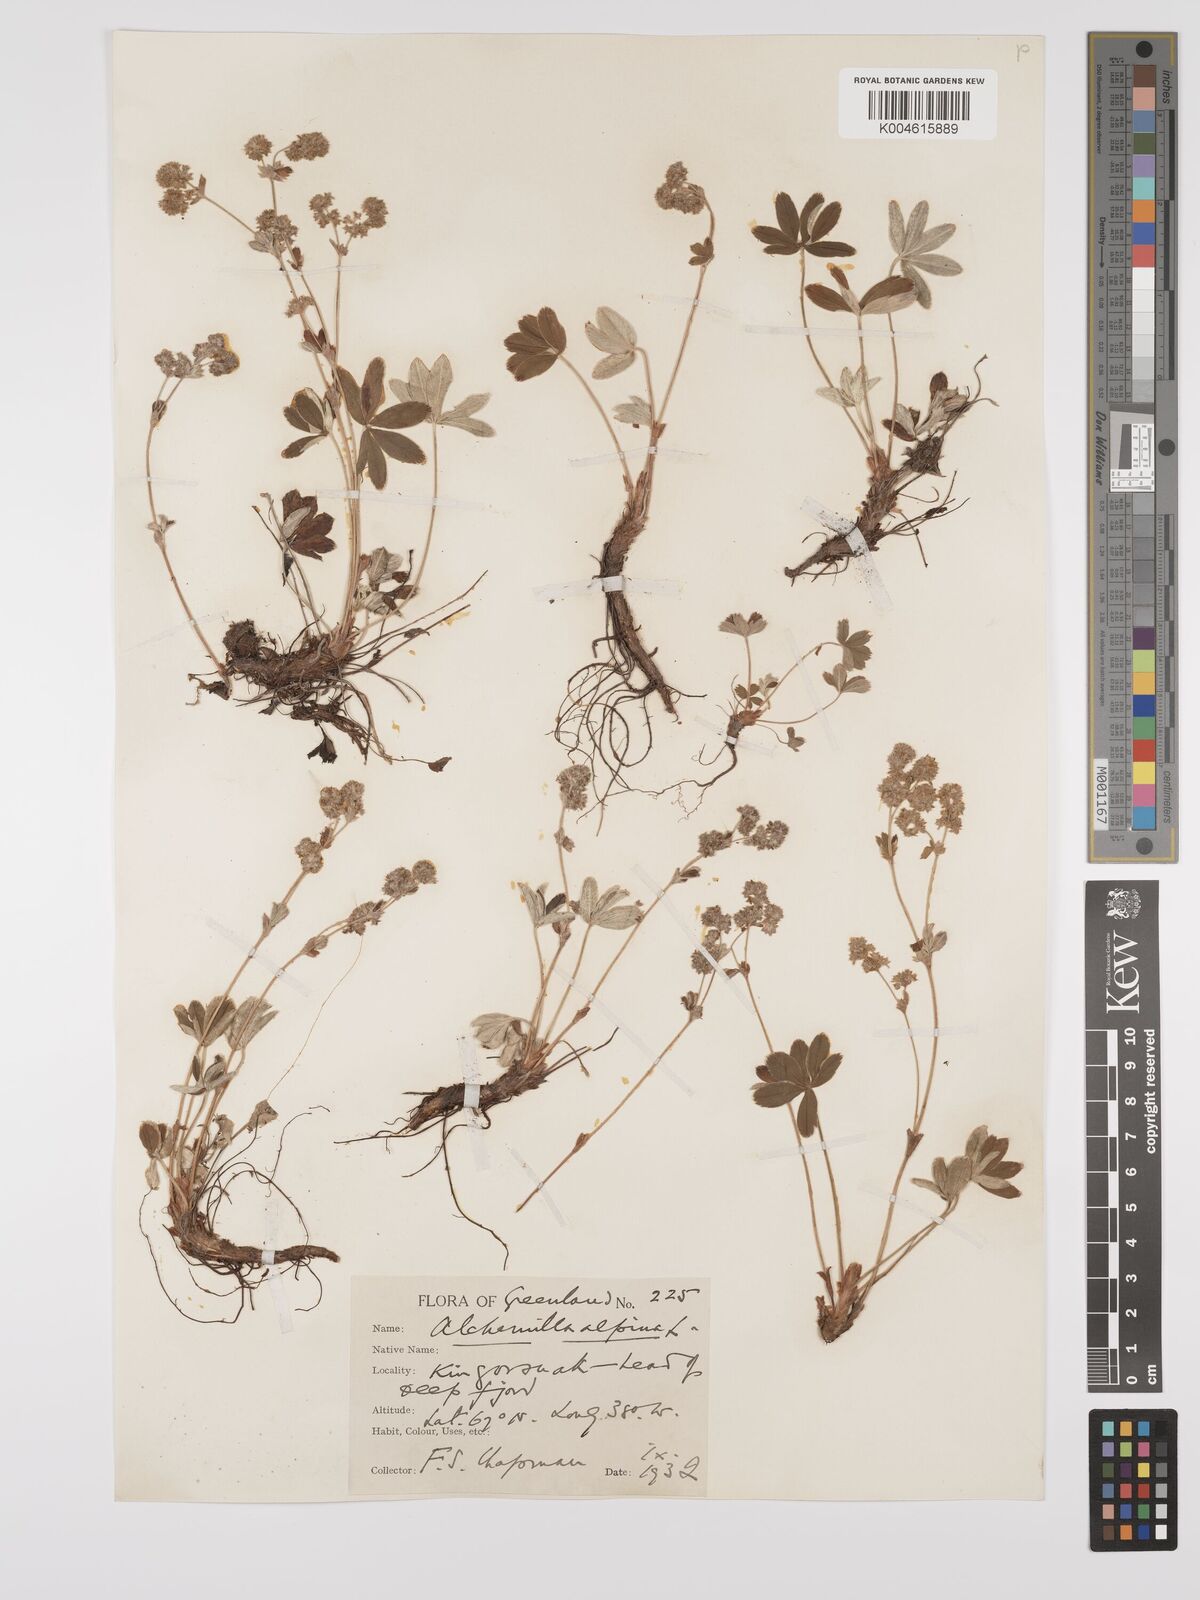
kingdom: Plantae
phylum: Tracheophyta
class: Magnoliopsida
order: Rosales
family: Rosaceae
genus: Alchemilla
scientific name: Alchemilla alpina
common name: Alpine lady's-mantle
